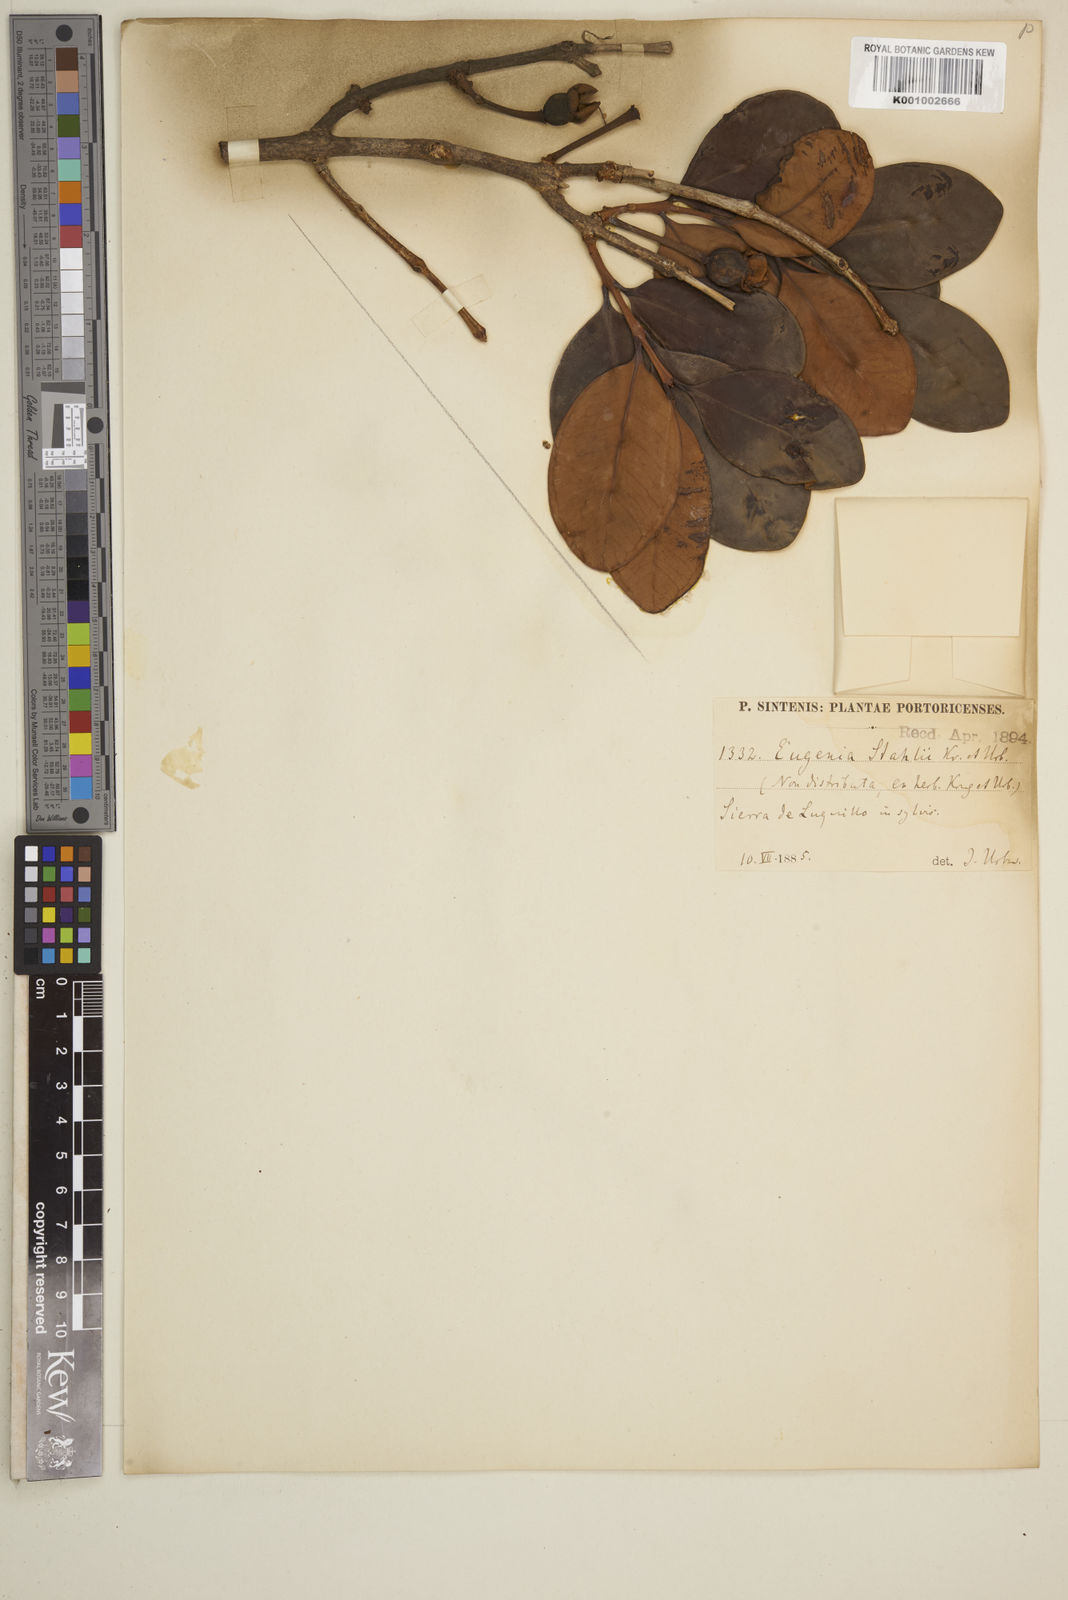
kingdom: Plantae
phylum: Tracheophyta
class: Magnoliopsida
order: Myrtales
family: Myrtaceae
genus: Eugenia
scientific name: Eugenia stahlii
